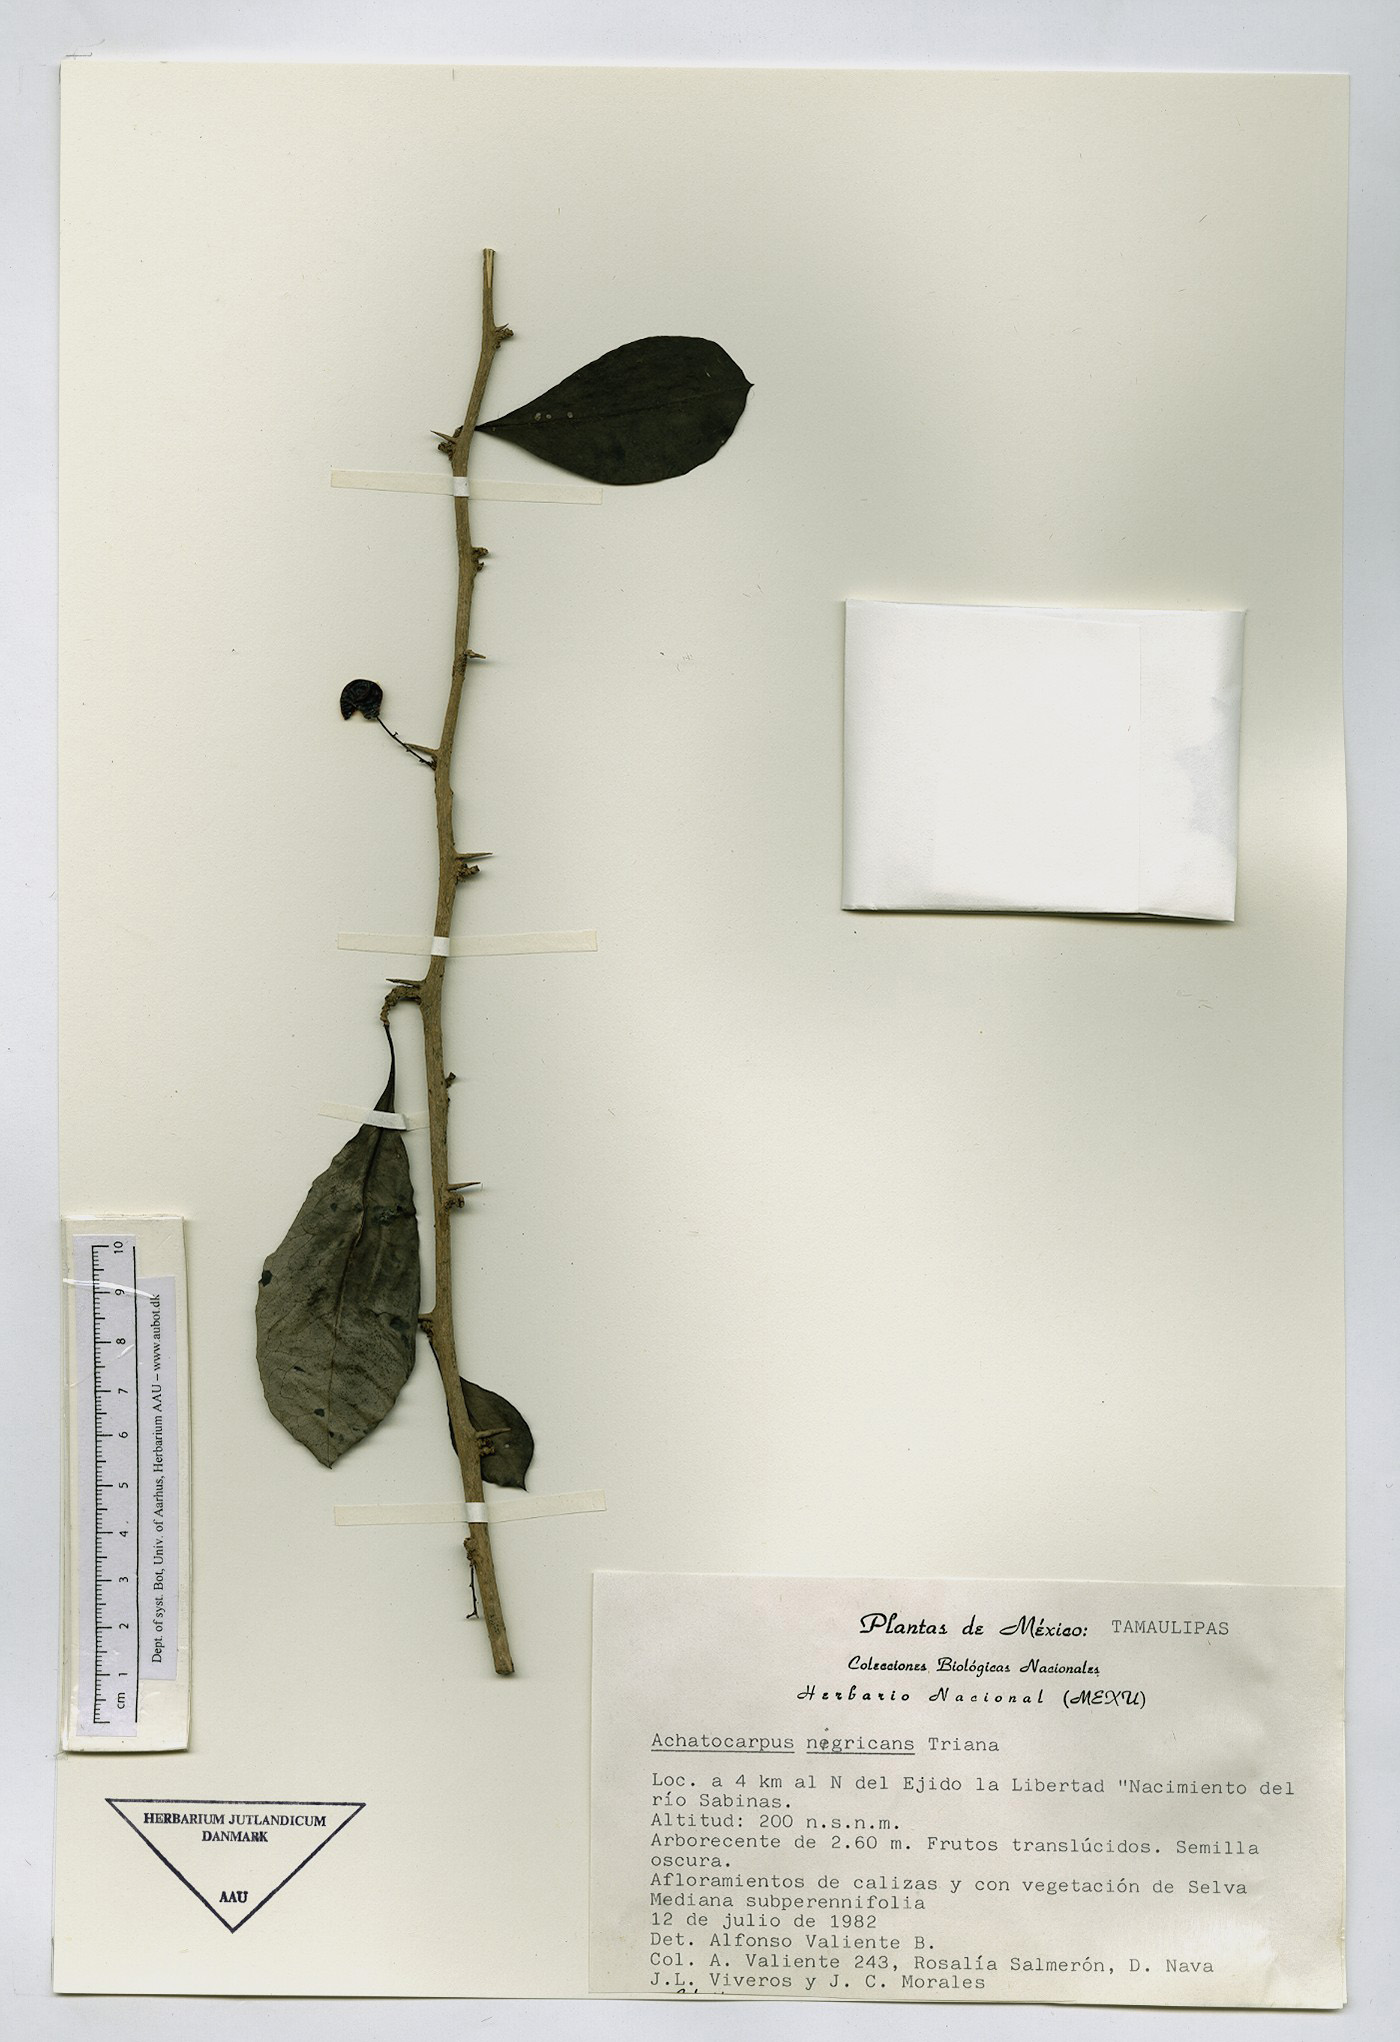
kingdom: Plantae
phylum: Tracheophyta
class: Magnoliopsida
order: Caryophyllales
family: Achatocarpaceae
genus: Achatocarpus
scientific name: Achatocarpus nigricans
